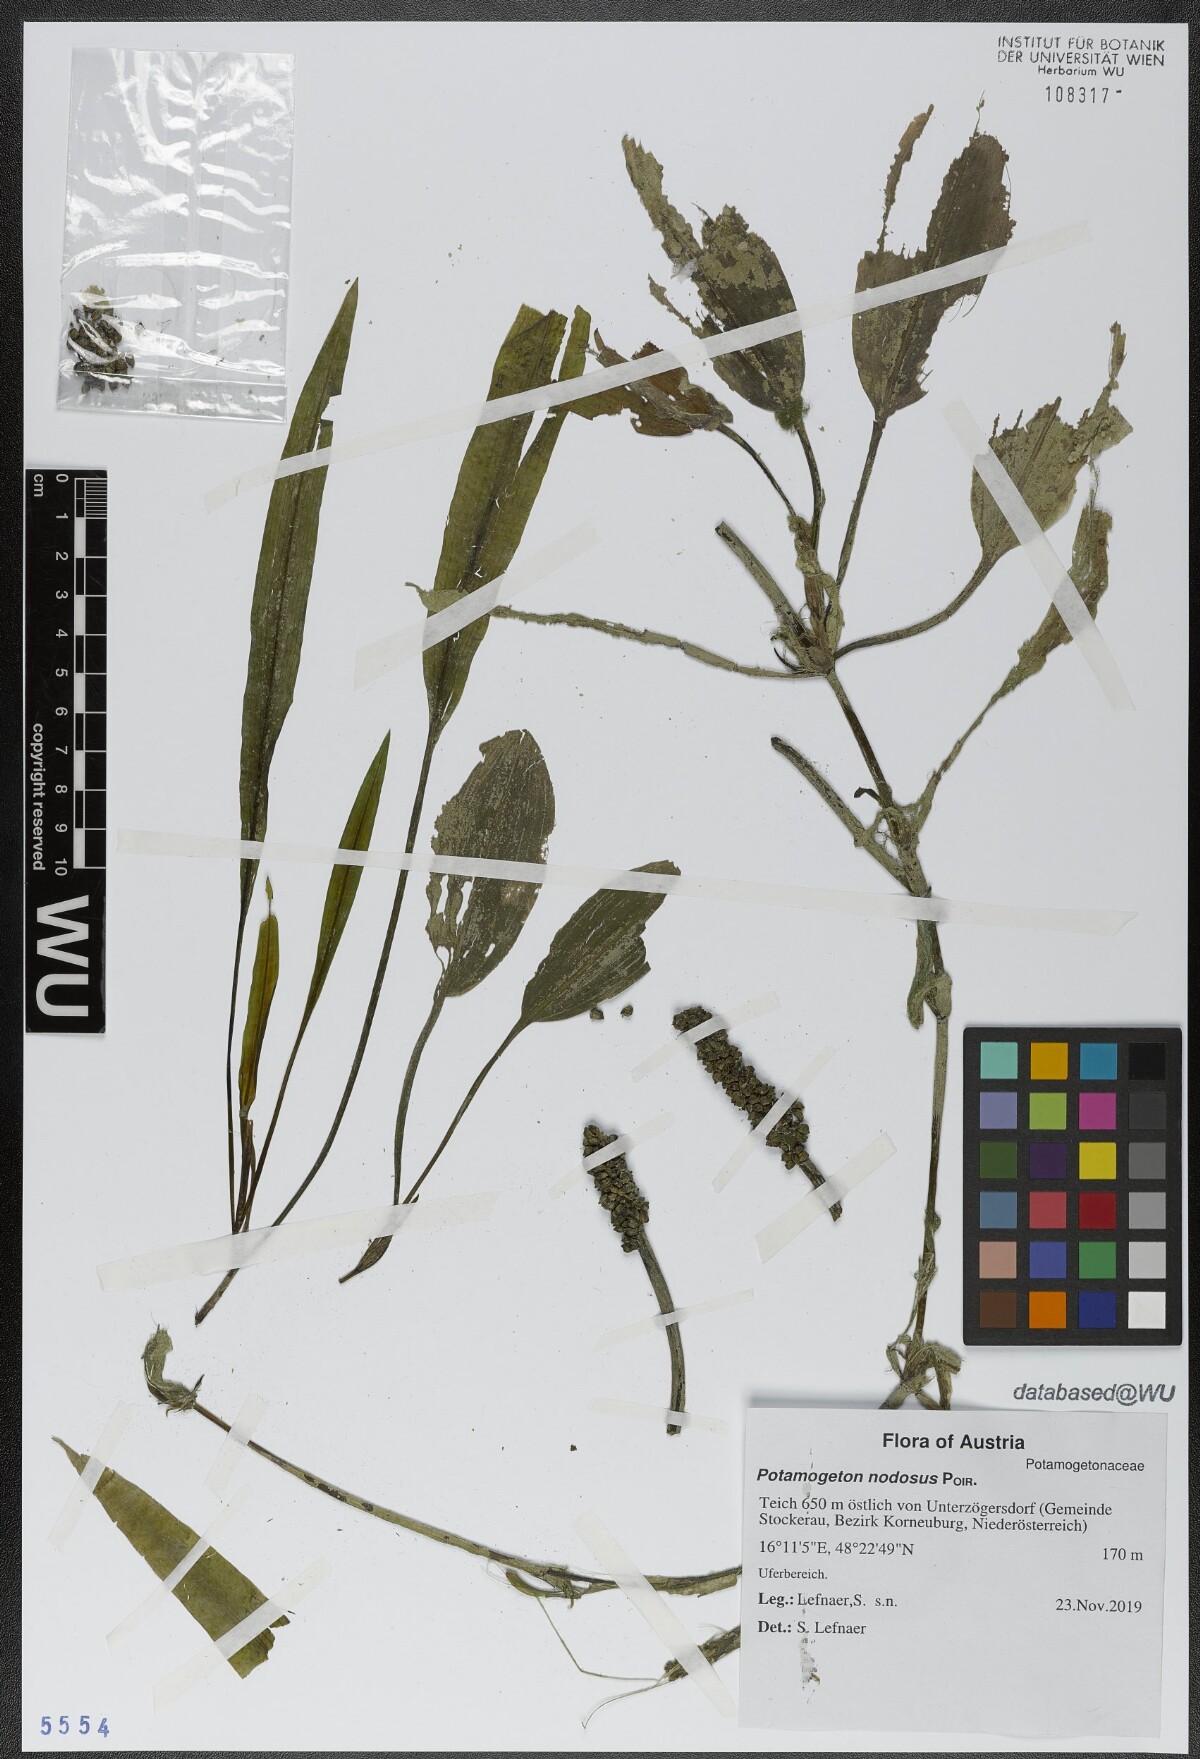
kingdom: Plantae
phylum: Tracheophyta
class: Liliopsida
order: Alismatales
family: Potamogetonaceae
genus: Potamogeton
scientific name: Potamogeton nodosus
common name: Loddon pondweed
